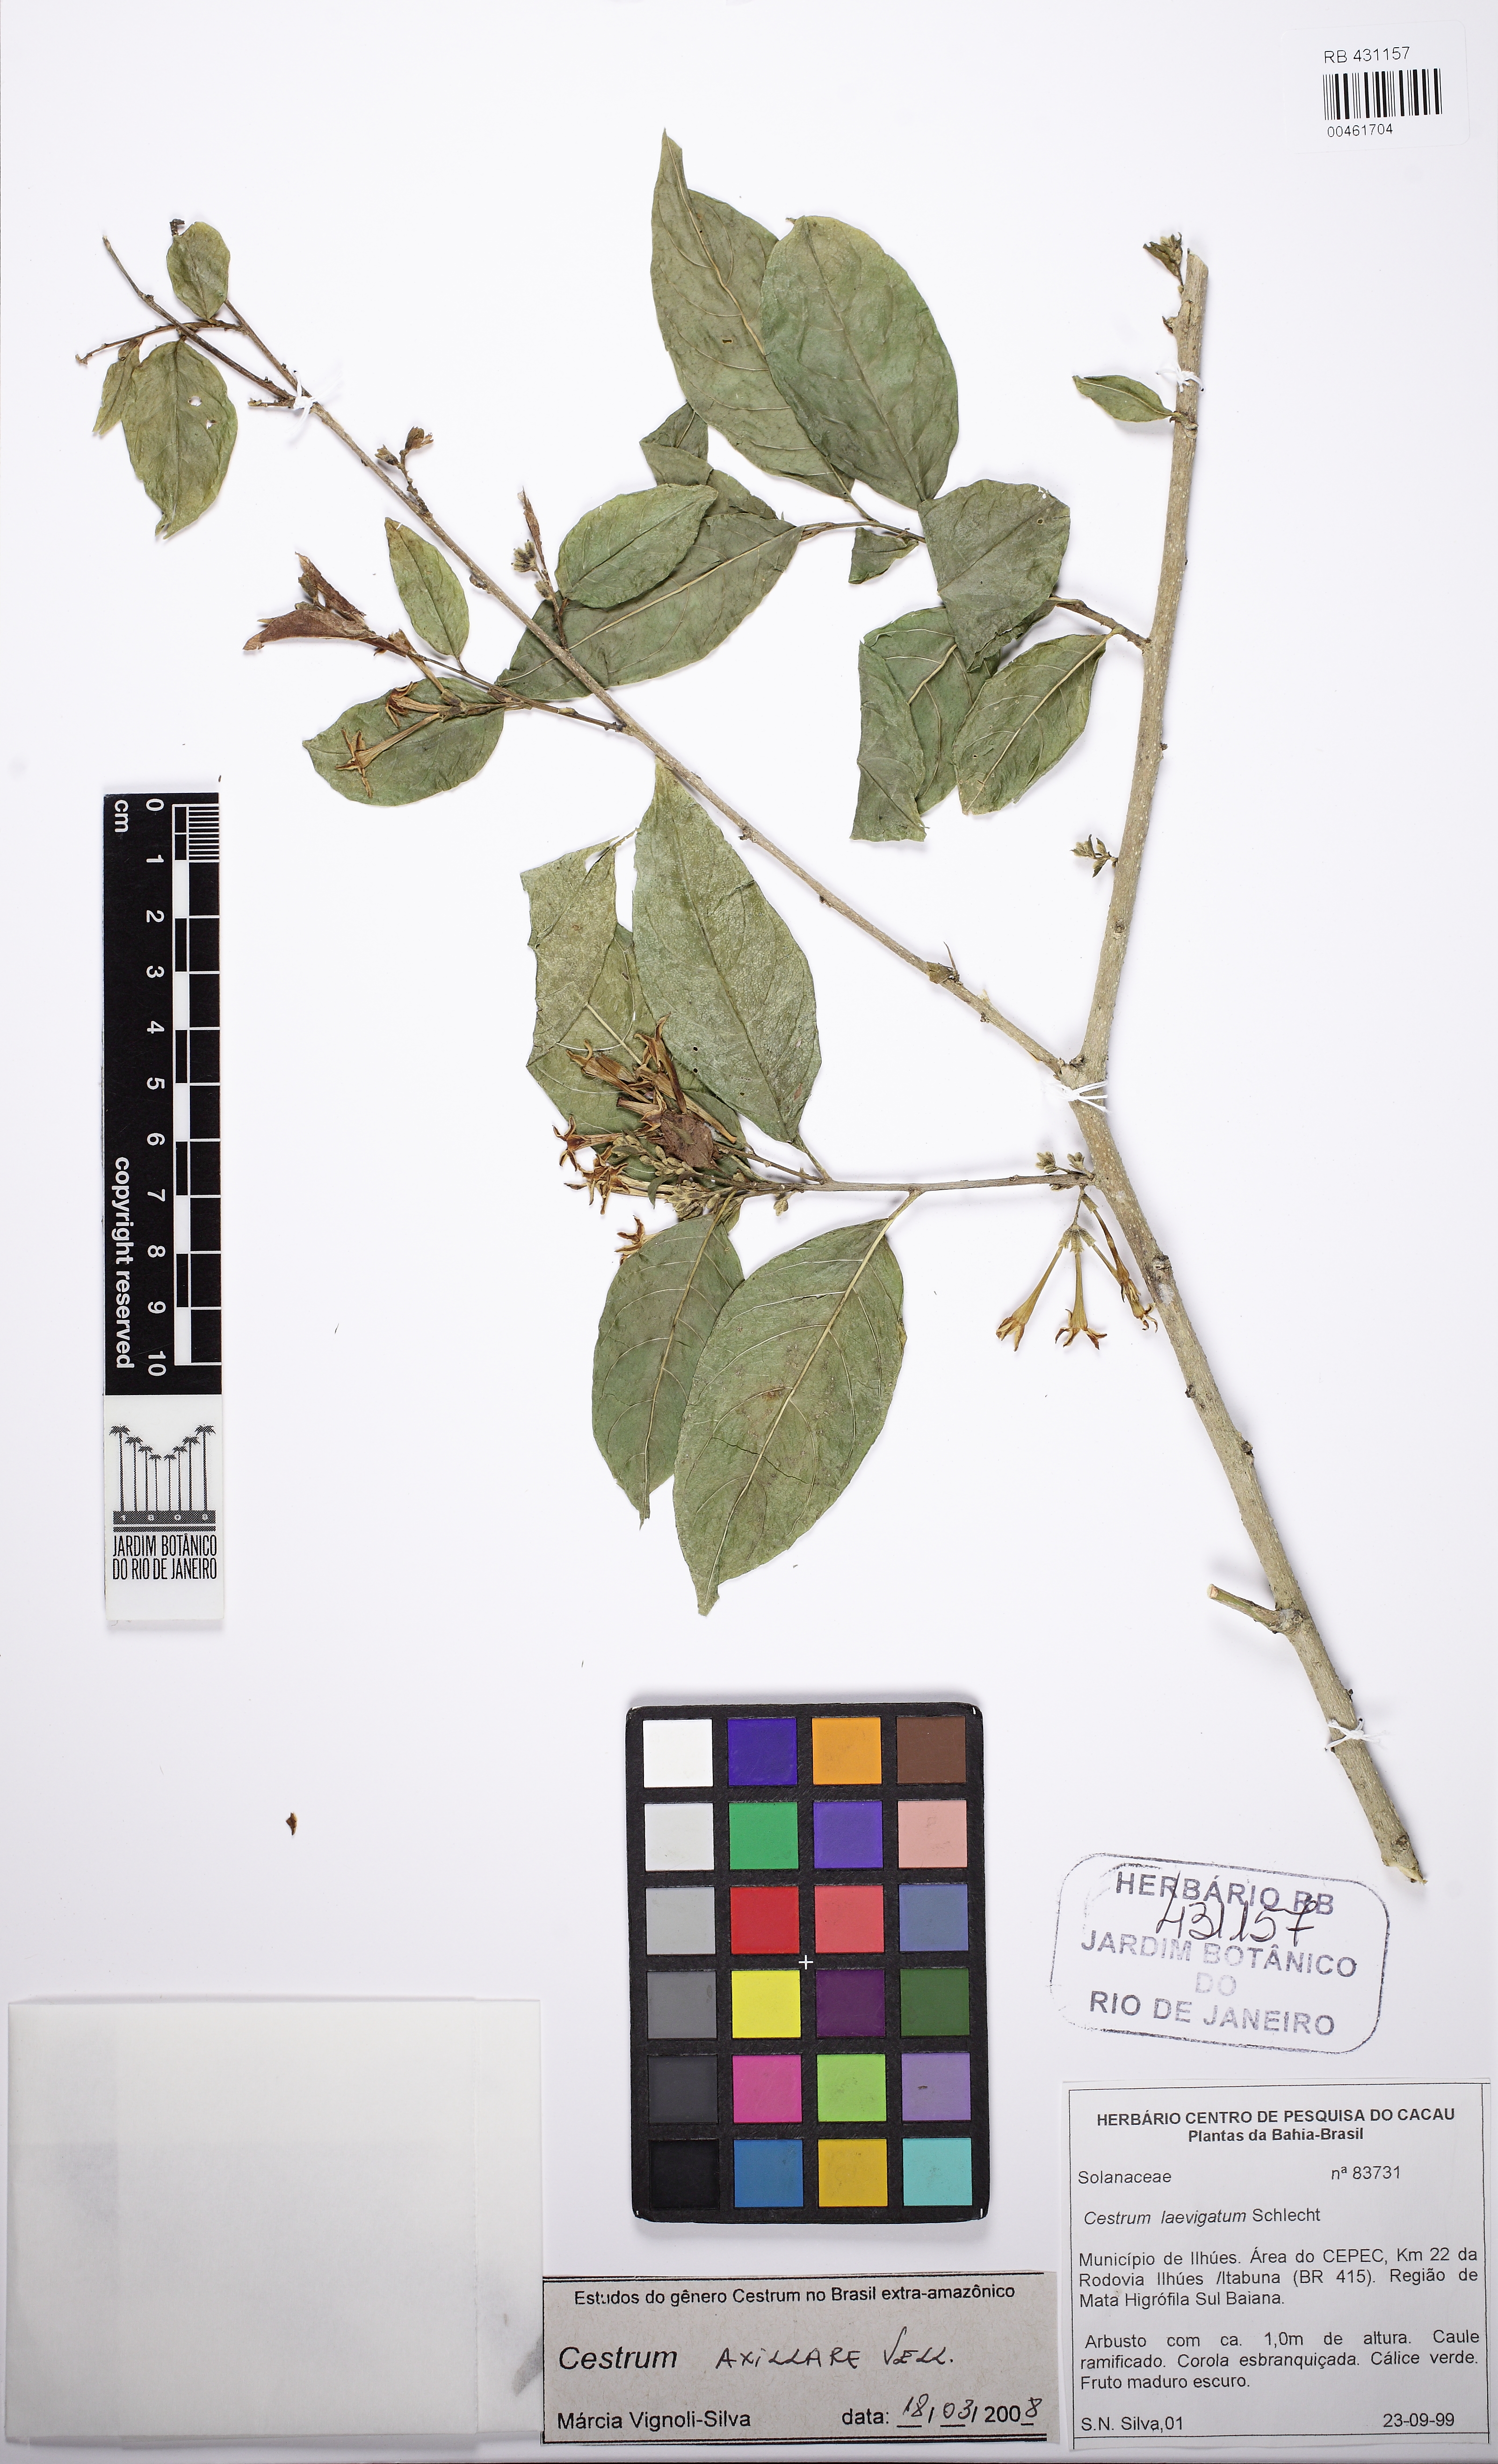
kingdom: Plantae
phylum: Tracheophyta
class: Magnoliopsida
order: Solanales
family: Solanaceae
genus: Cestrum
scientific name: Cestrum laevigatum
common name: Inkberry
